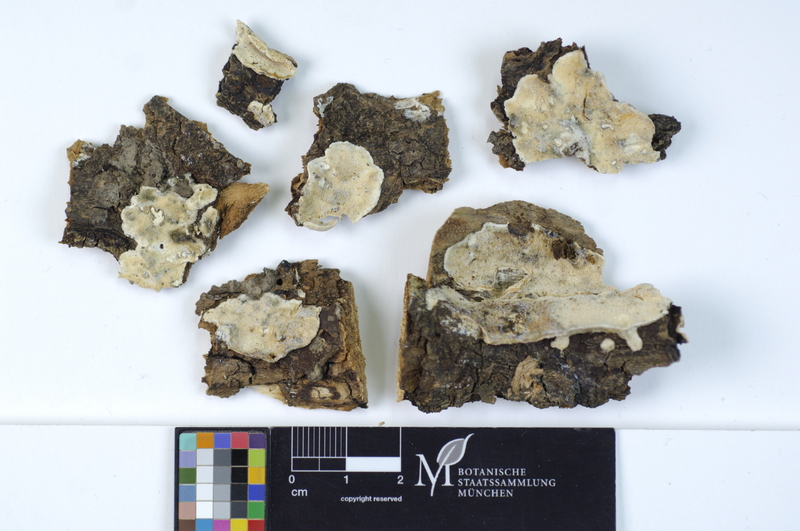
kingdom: Fungi
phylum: Basidiomycota
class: Agaricomycetes
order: Polyporales
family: Incrustoporiaceae
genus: Skeletocutis
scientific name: Skeletocutis nivea
